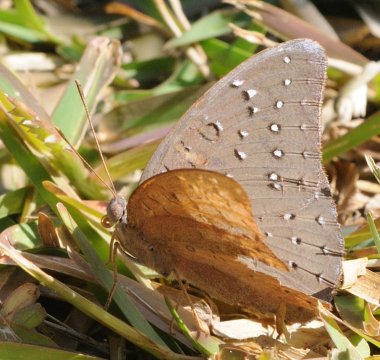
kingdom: Animalia
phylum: Arthropoda
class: Insecta
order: Lepidoptera
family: Nymphalidae
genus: Hamanumida
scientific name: Hamanumida daedalus
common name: Guineafowl
